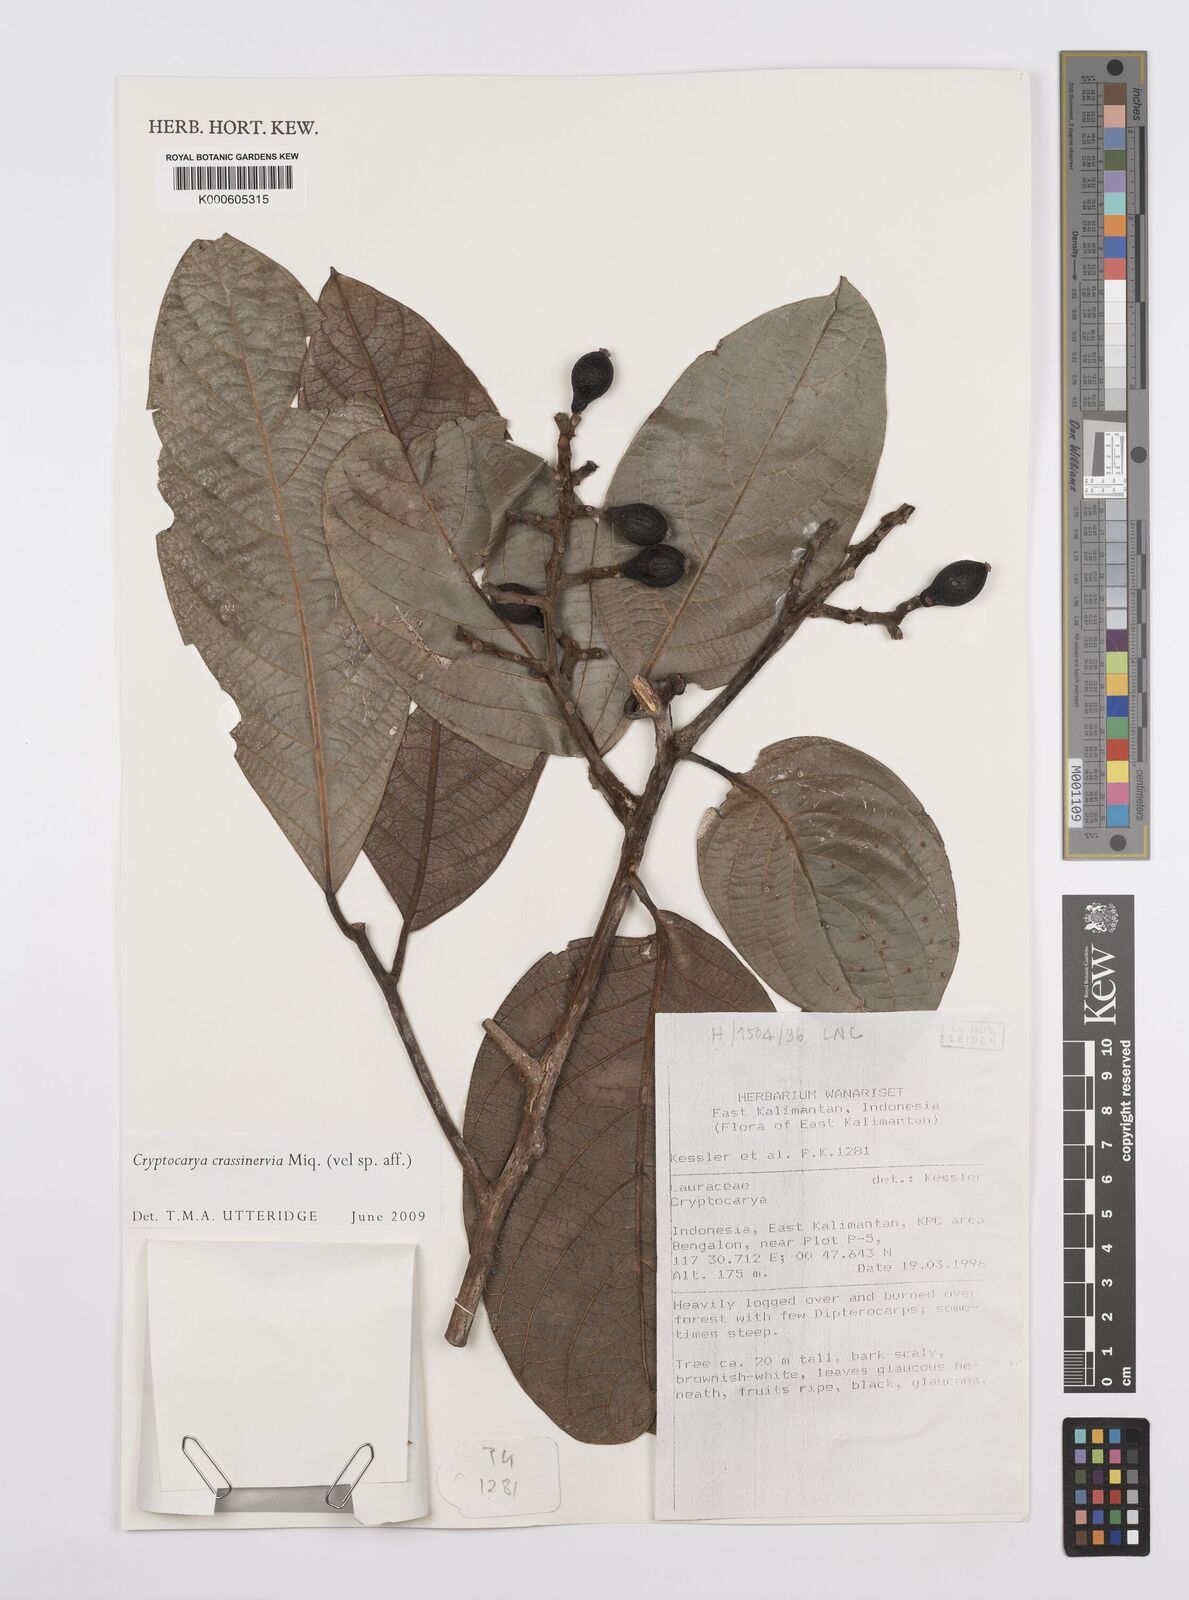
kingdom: Plantae
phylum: Tracheophyta
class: Magnoliopsida
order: Laurales
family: Lauraceae
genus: Cryptocarya
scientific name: Cryptocarya diversifolia
